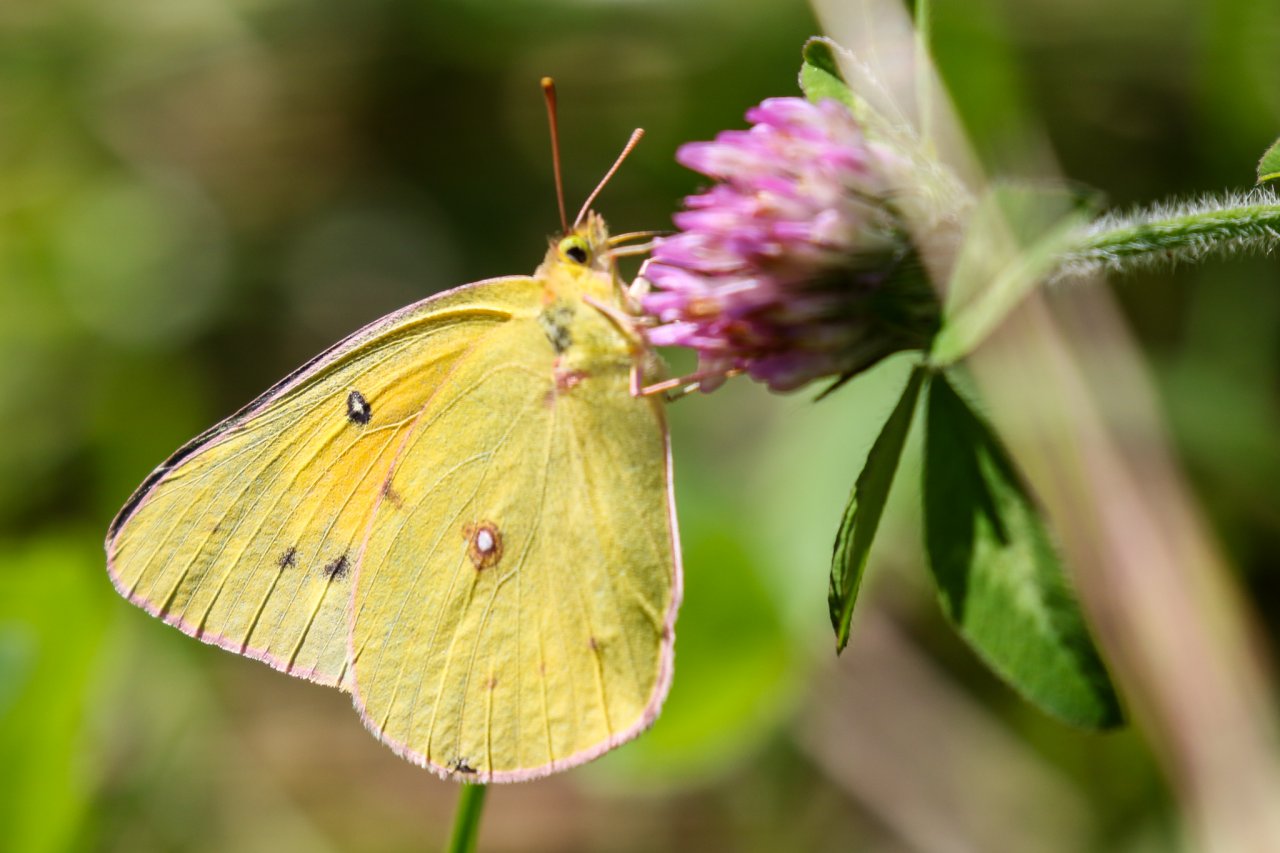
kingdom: Animalia
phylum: Arthropoda
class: Insecta
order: Lepidoptera
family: Pieridae
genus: Colias
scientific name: Colias eurytheme
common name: Orange Sulphur
